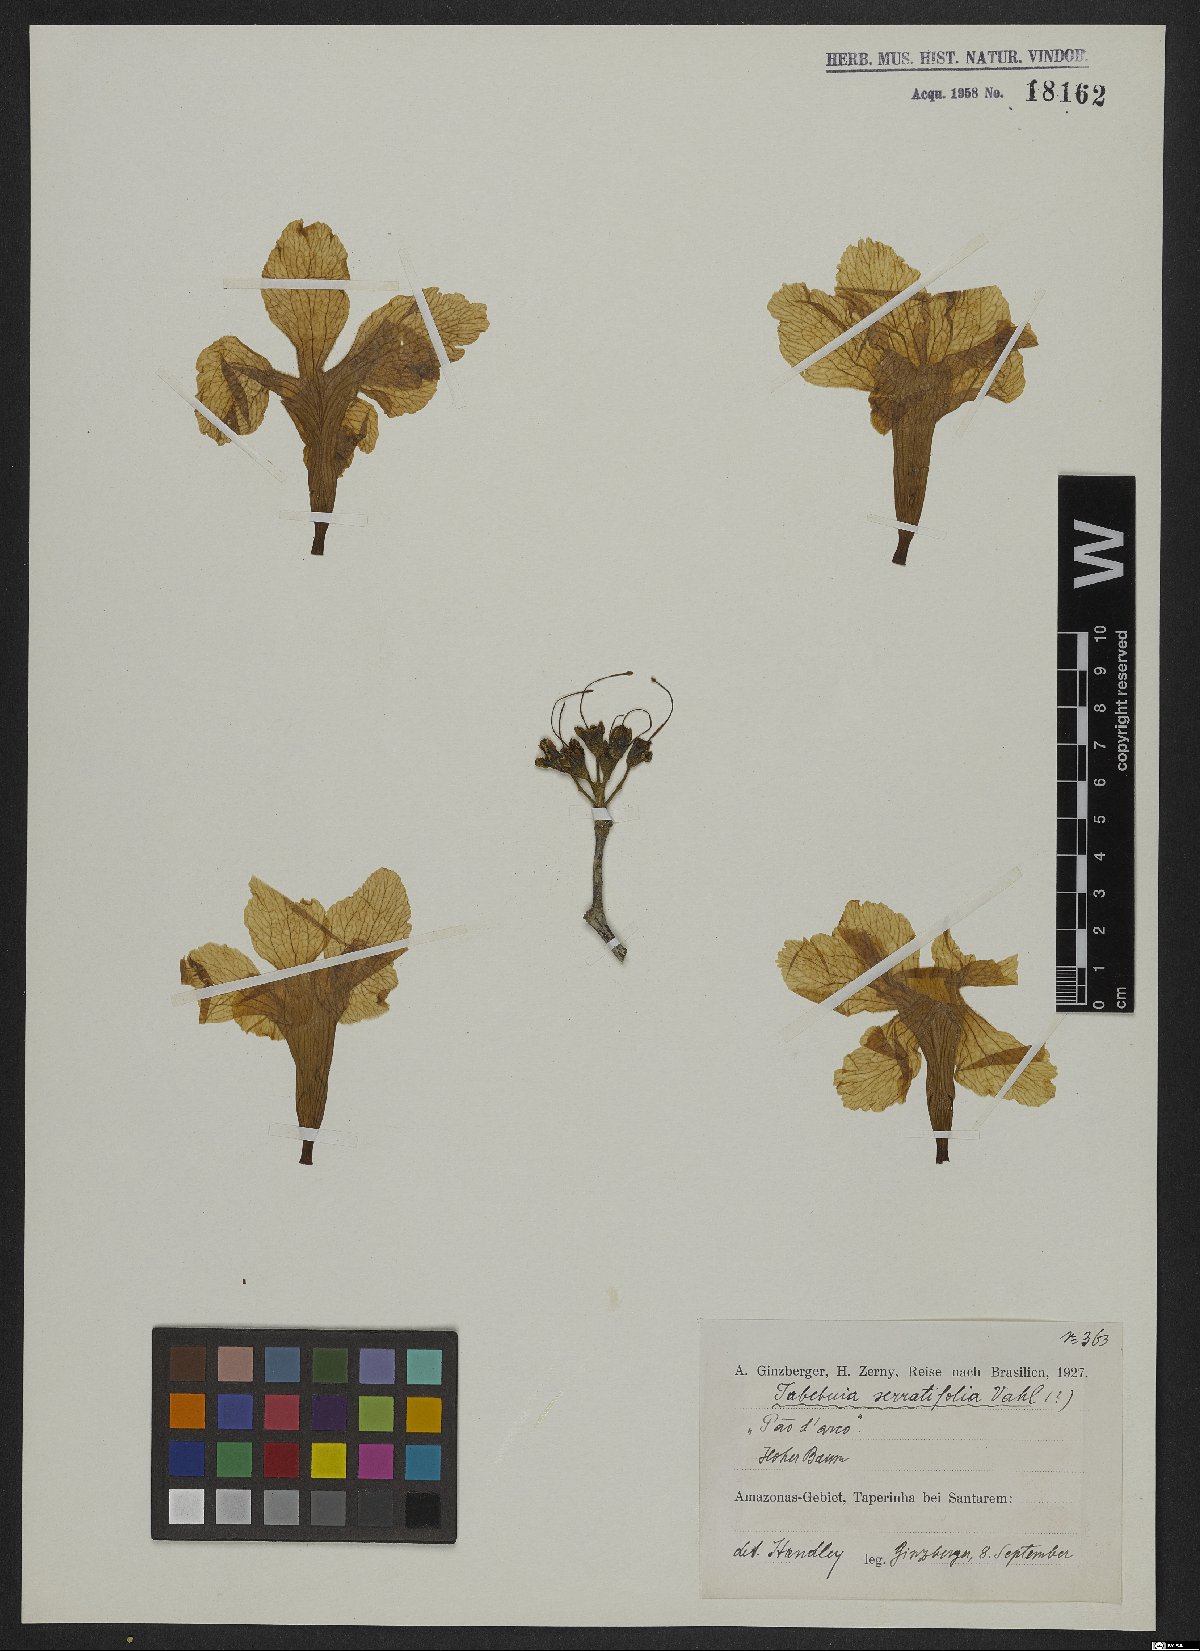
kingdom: Plantae
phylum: Tracheophyta
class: Magnoliopsida
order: Lamiales
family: Bignoniaceae
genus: Handroanthus
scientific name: Handroanthus serratifolius
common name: Yellow ipe
